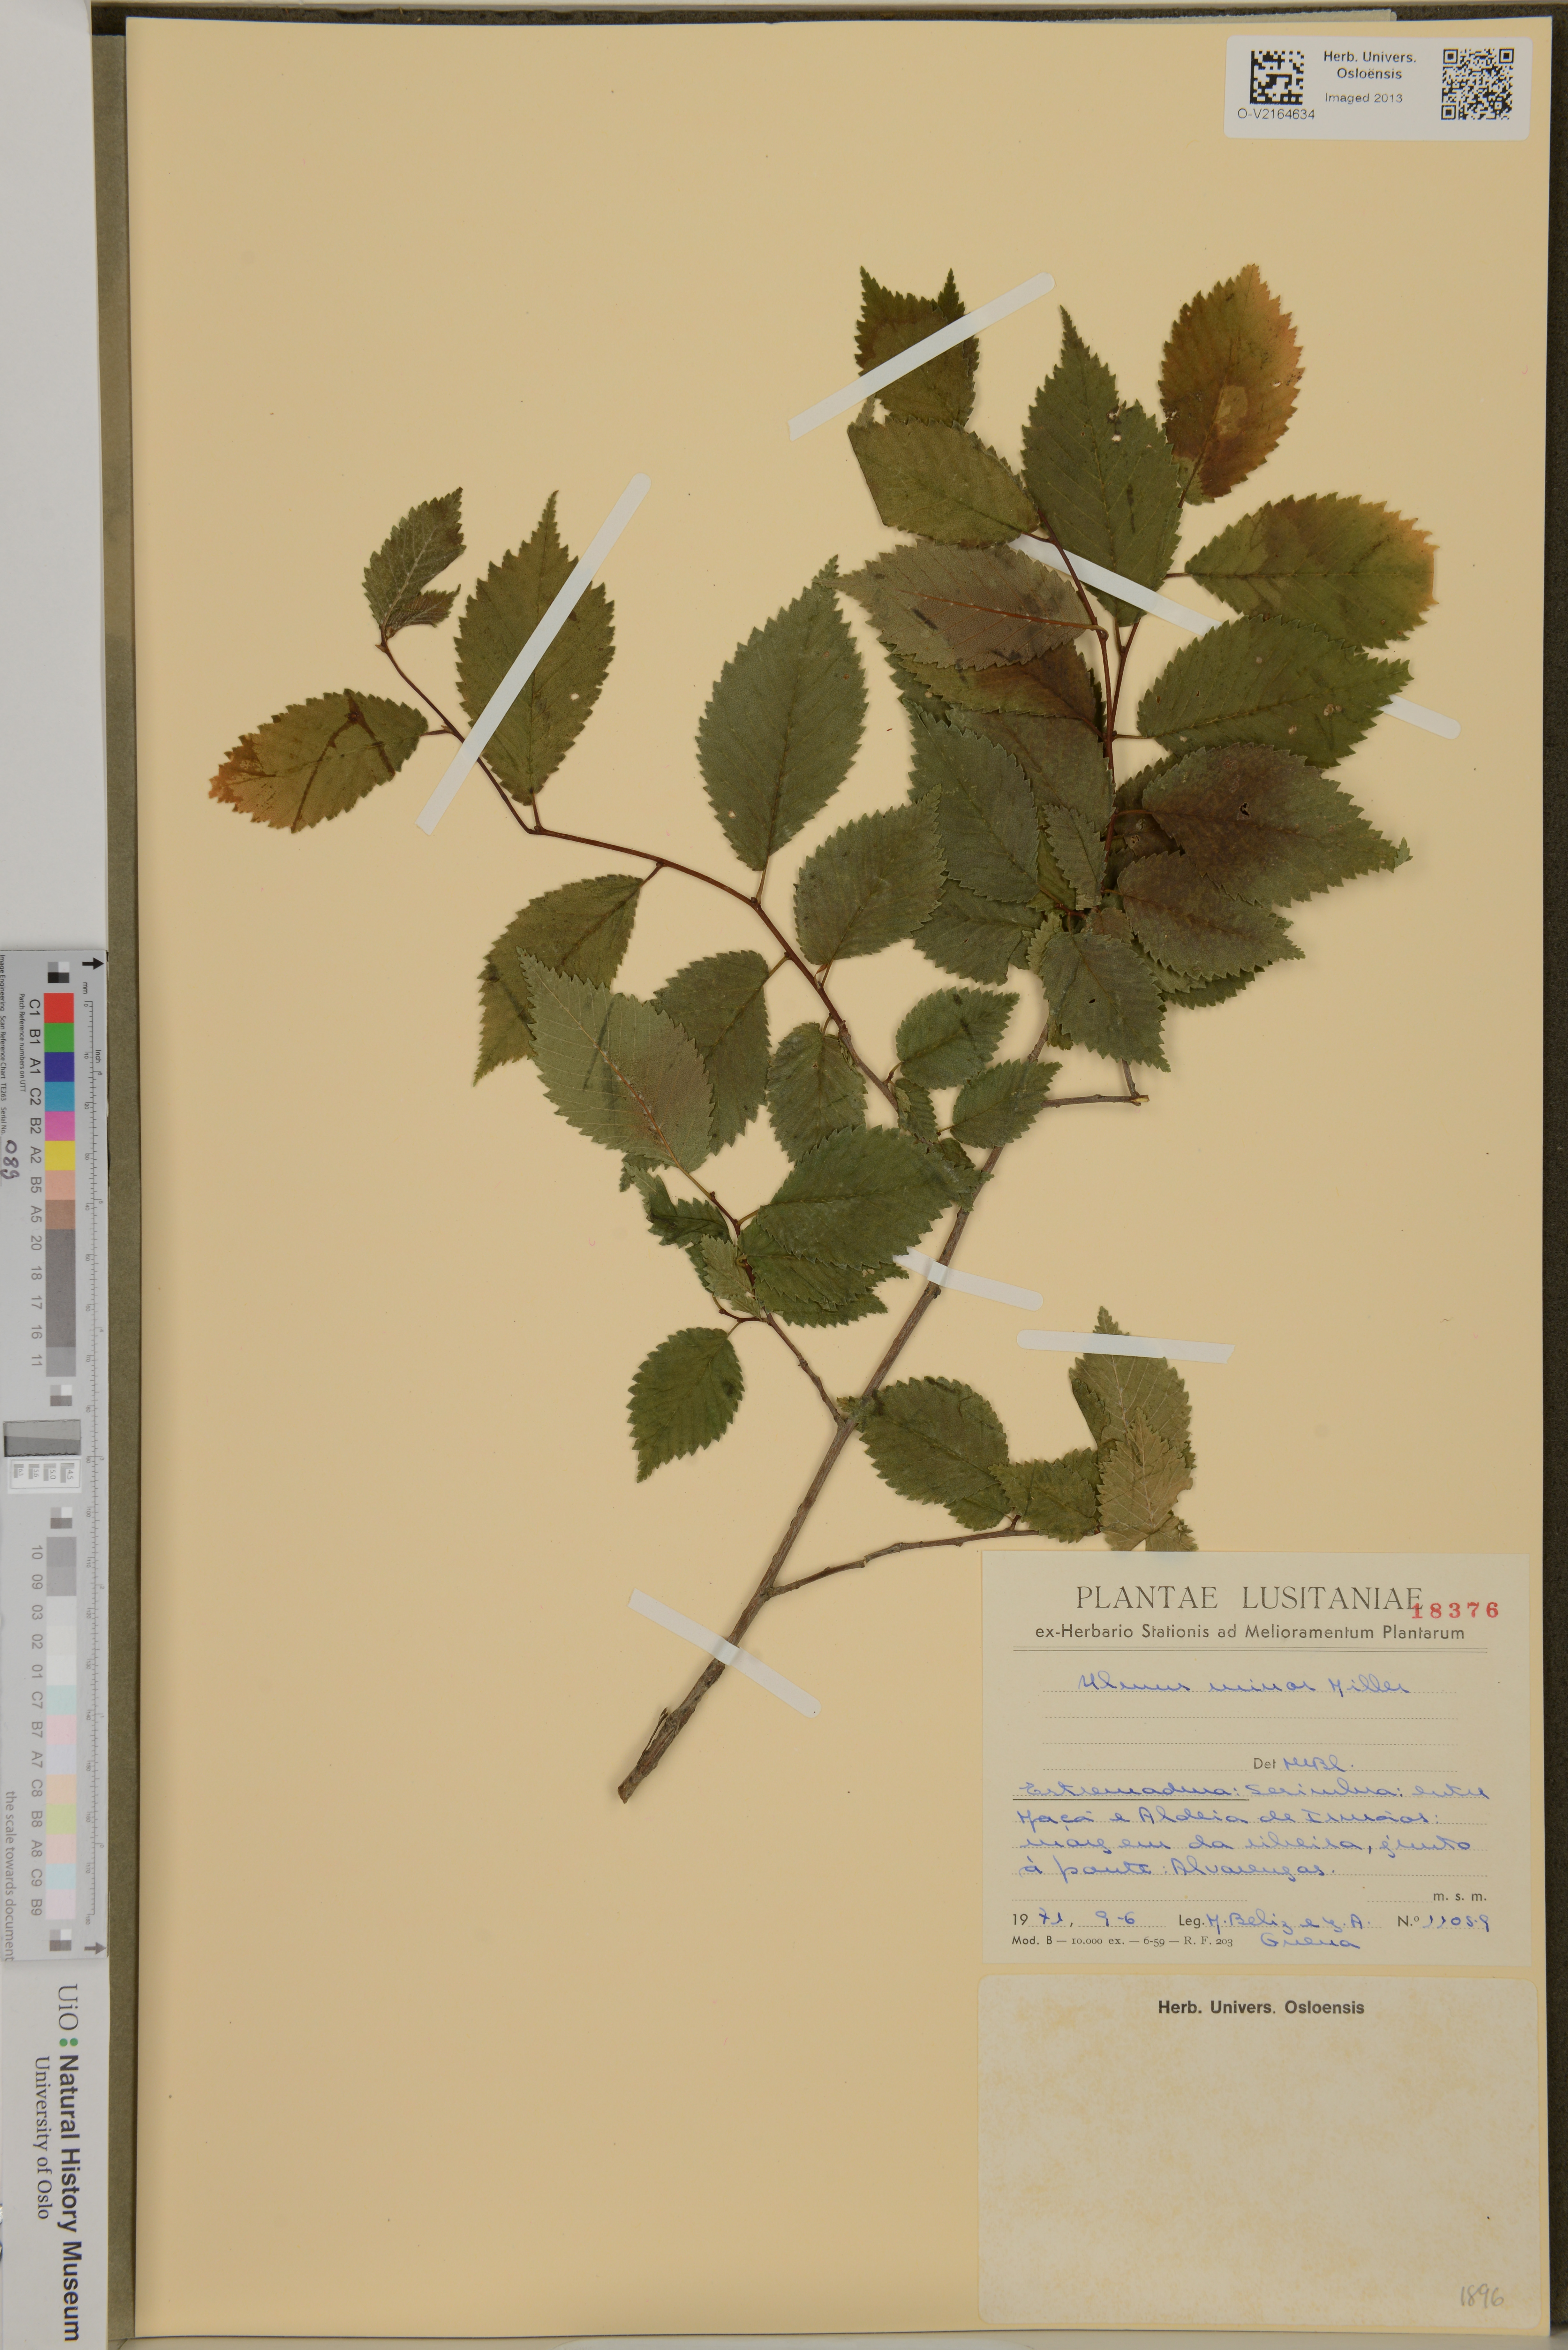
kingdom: Plantae
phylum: Tracheophyta
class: Magnoliopsida
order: Rosales
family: Ulmaceae
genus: Ulmus
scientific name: Ulmus minor
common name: Small-leaved elm
